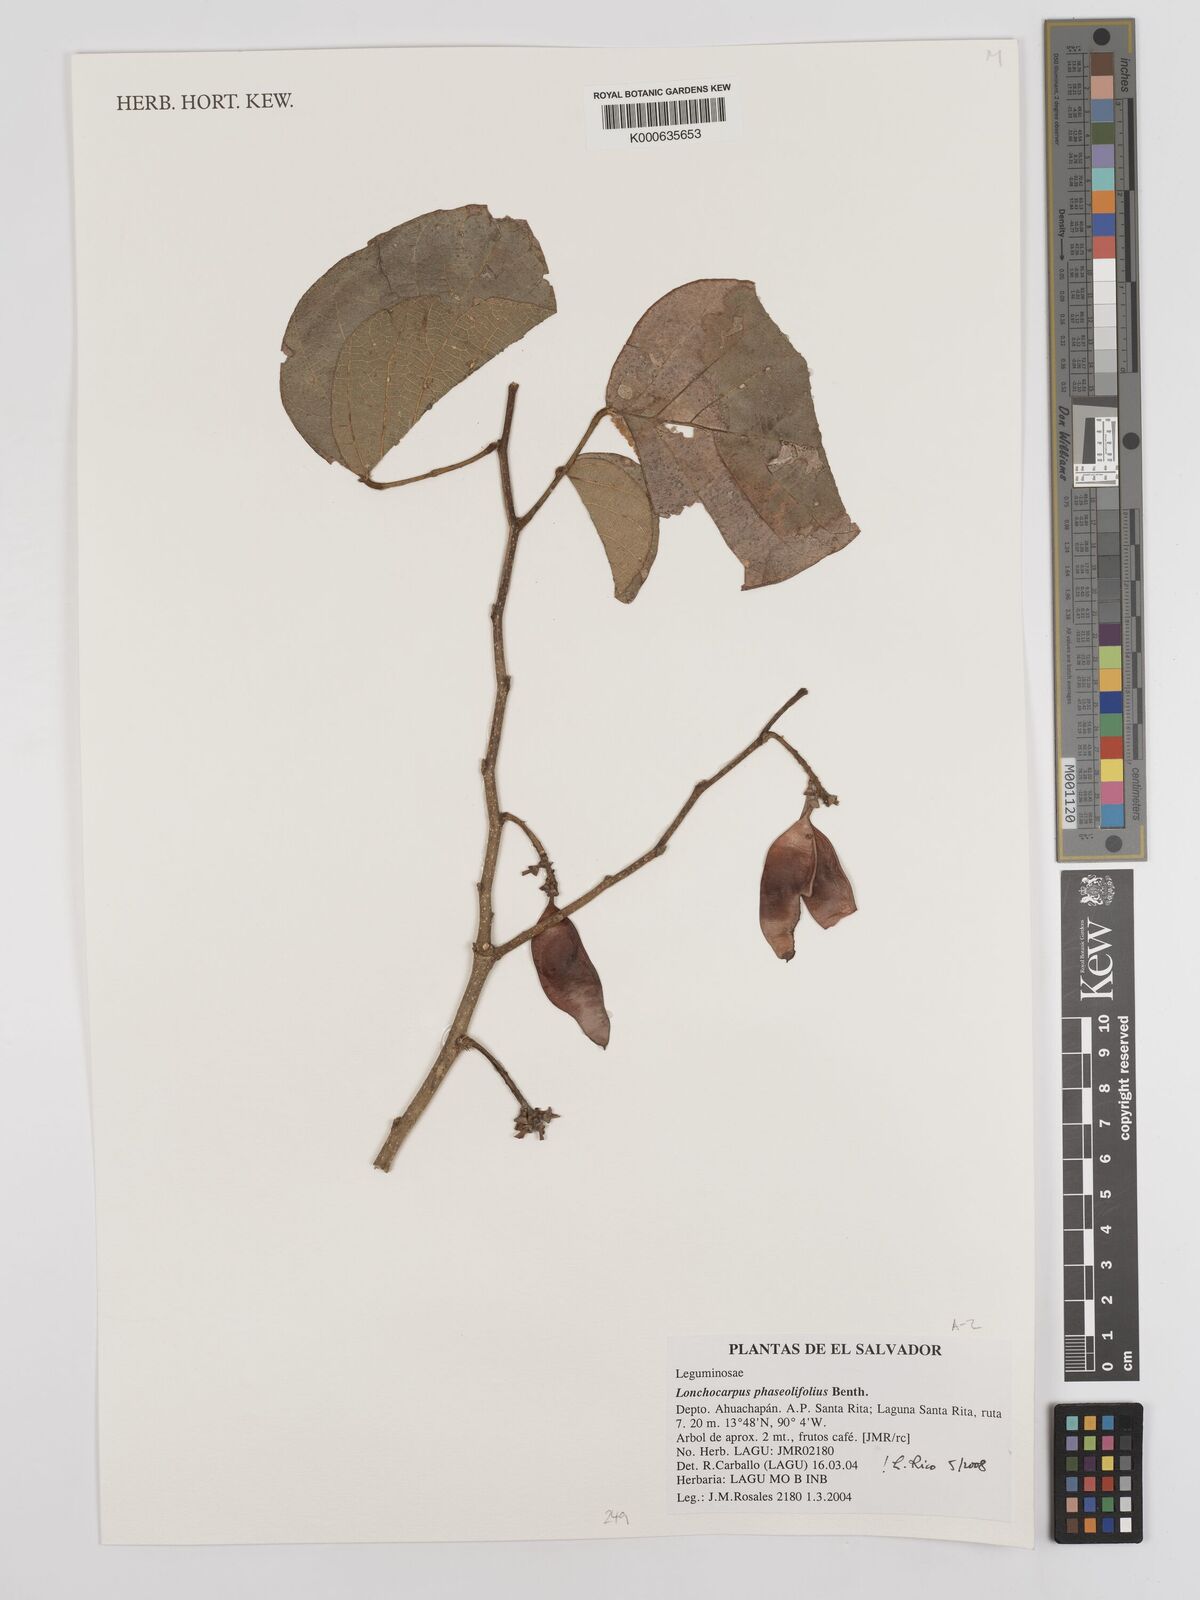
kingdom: Plantae
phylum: Tracheophyta
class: Magnoliopsida
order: Fabales
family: Fabaceae
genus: Lonchocarpus
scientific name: Lonchocarpus phaseolifolius
